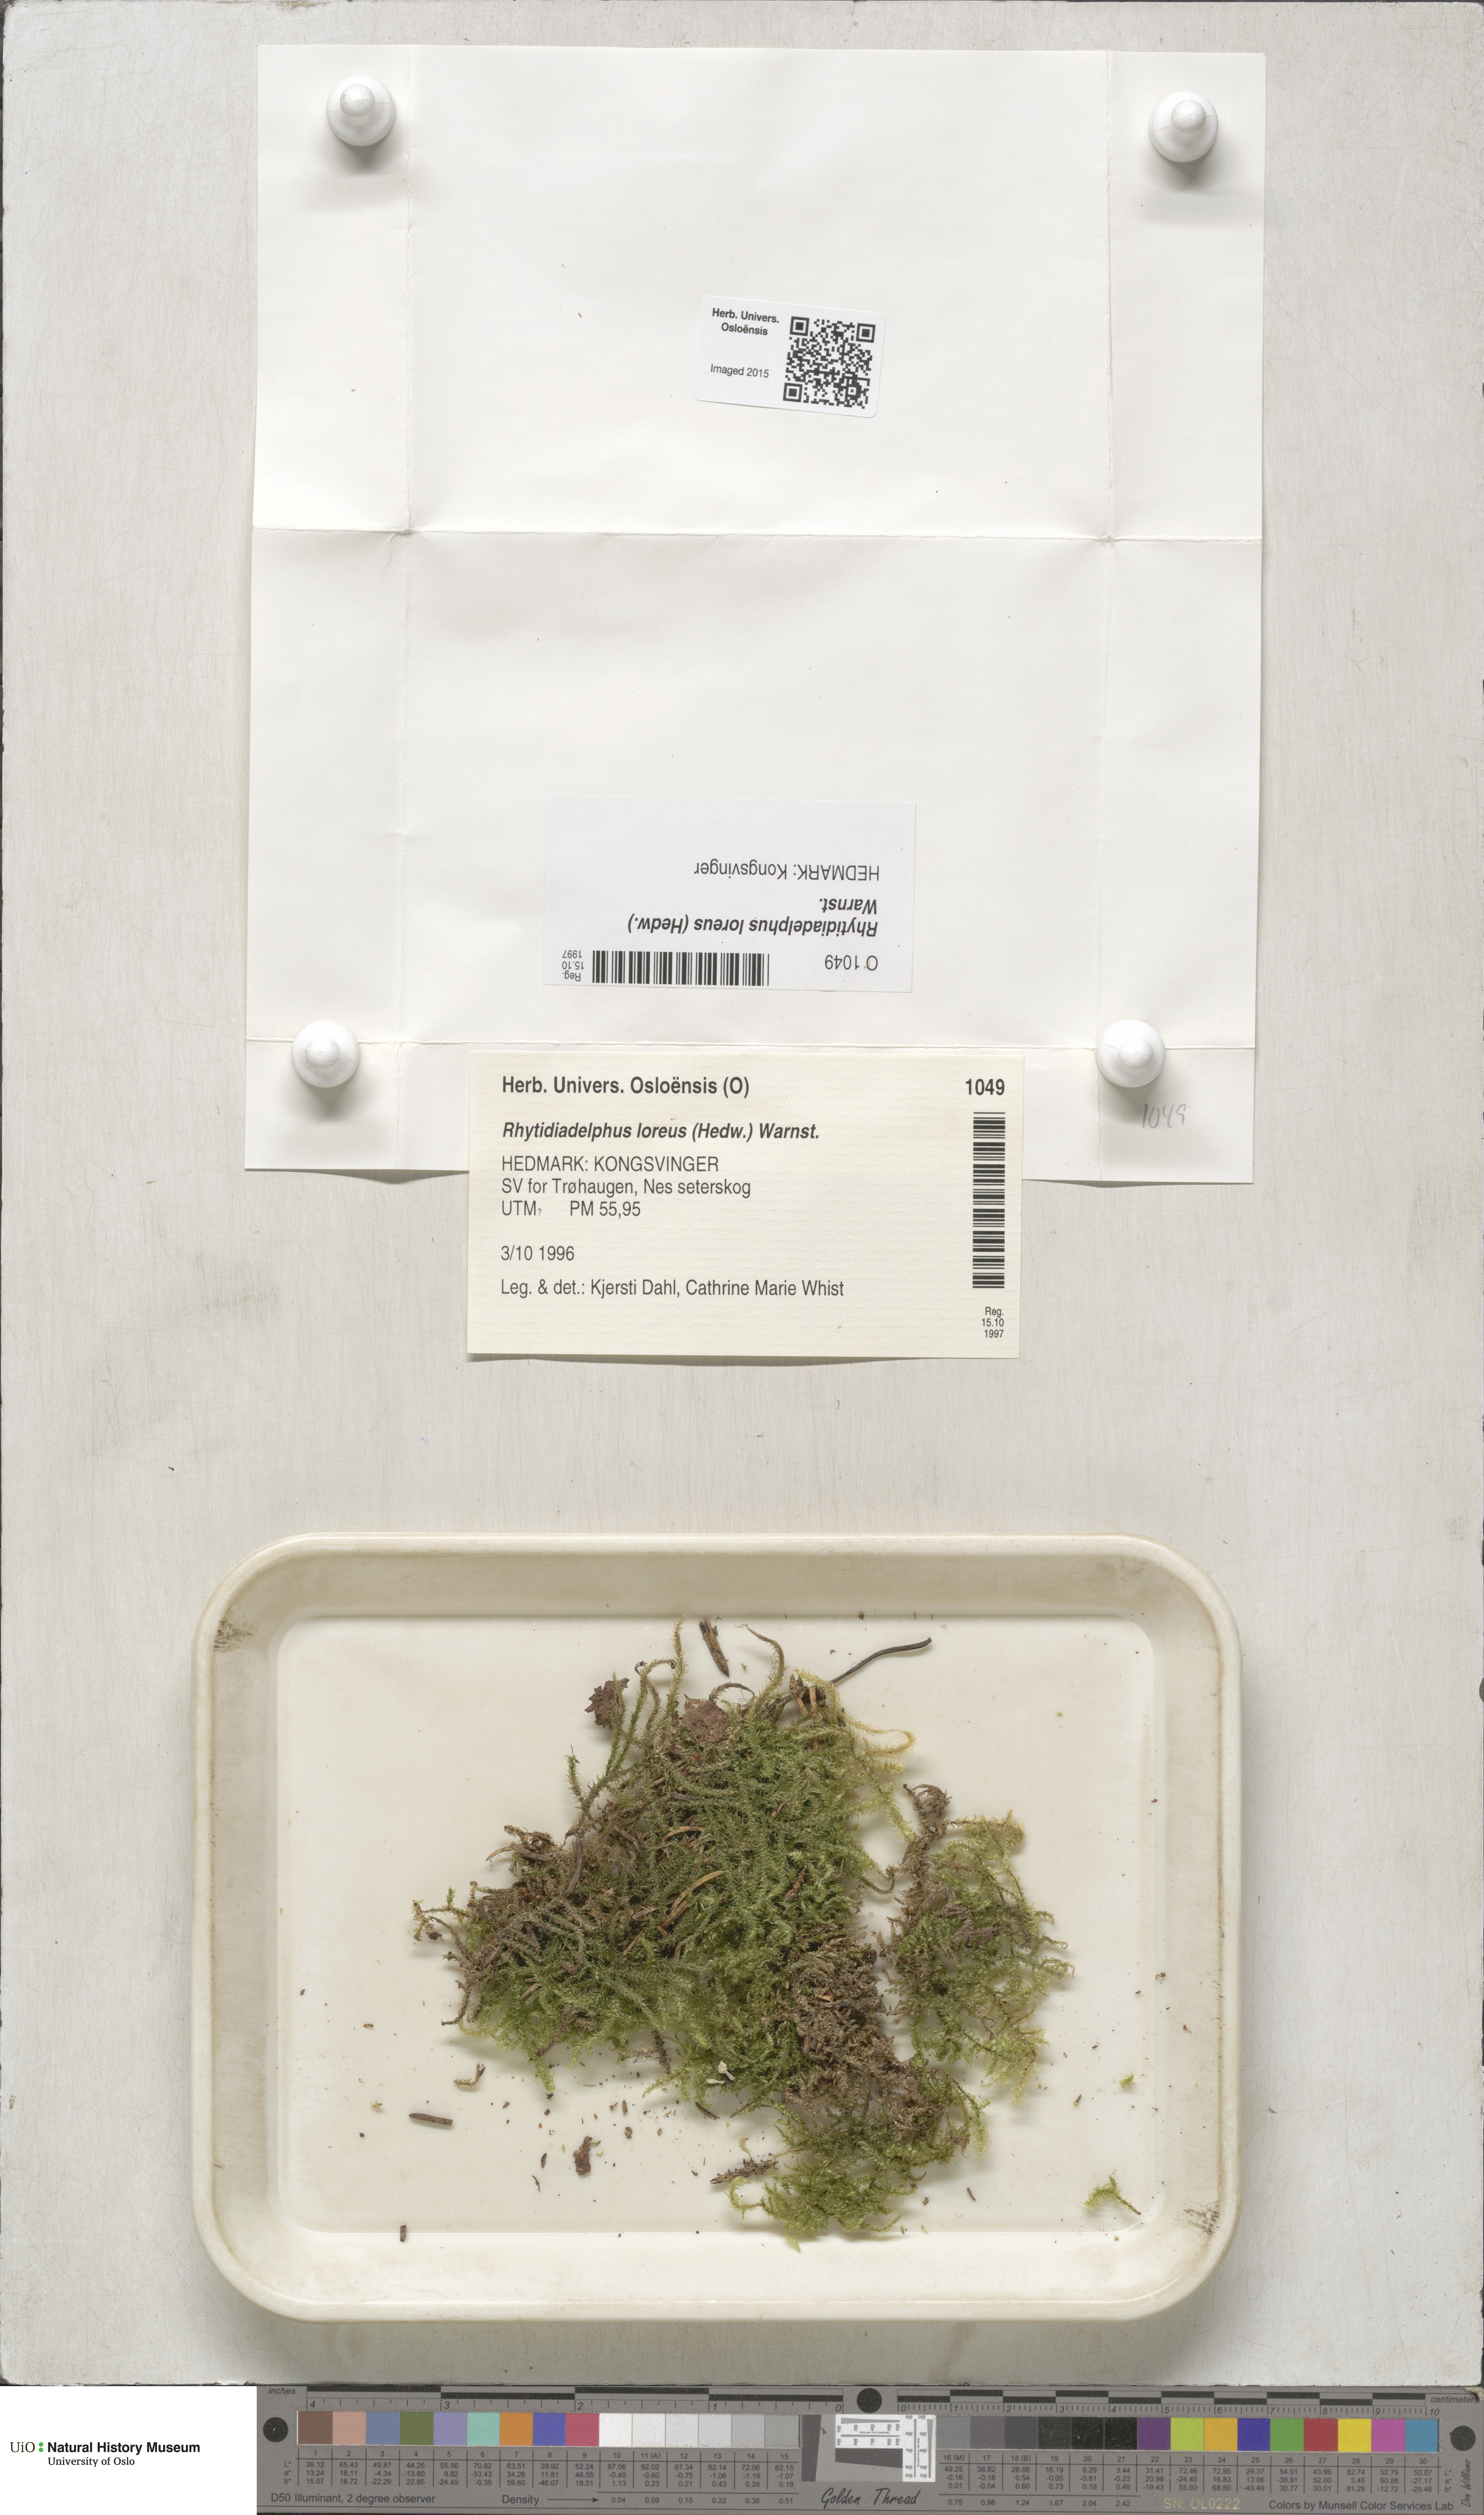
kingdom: Plantae
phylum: Bryophyta
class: Bryopsida
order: Hypnales
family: Hylocomiaceae
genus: Rhytidiadelphus
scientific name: Rhytidiadelphus loreus
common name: Lanky moss
